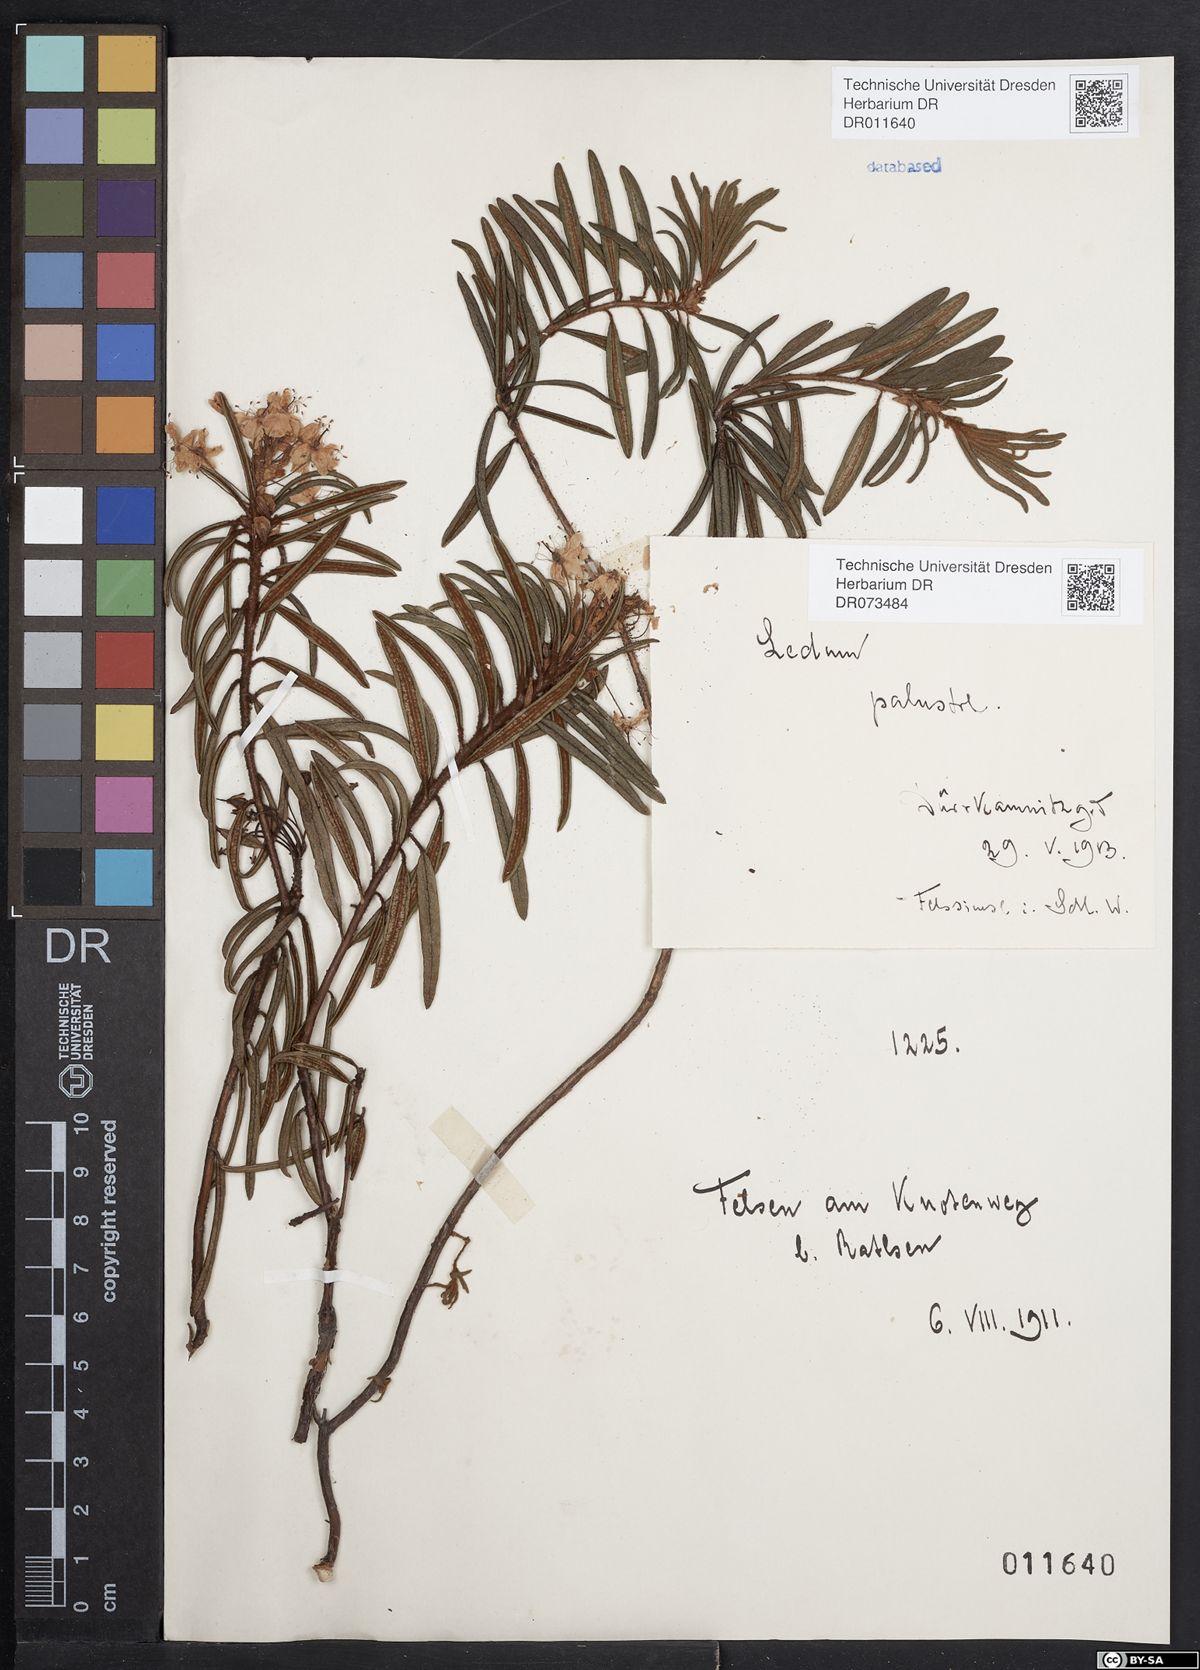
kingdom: Plantae
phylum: Tracheophyta
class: Magnoliopsida
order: Ericales
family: Ericaceae
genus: Rhododendron
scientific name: Rhododendron tomentosum
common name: Marsh labrador tea
